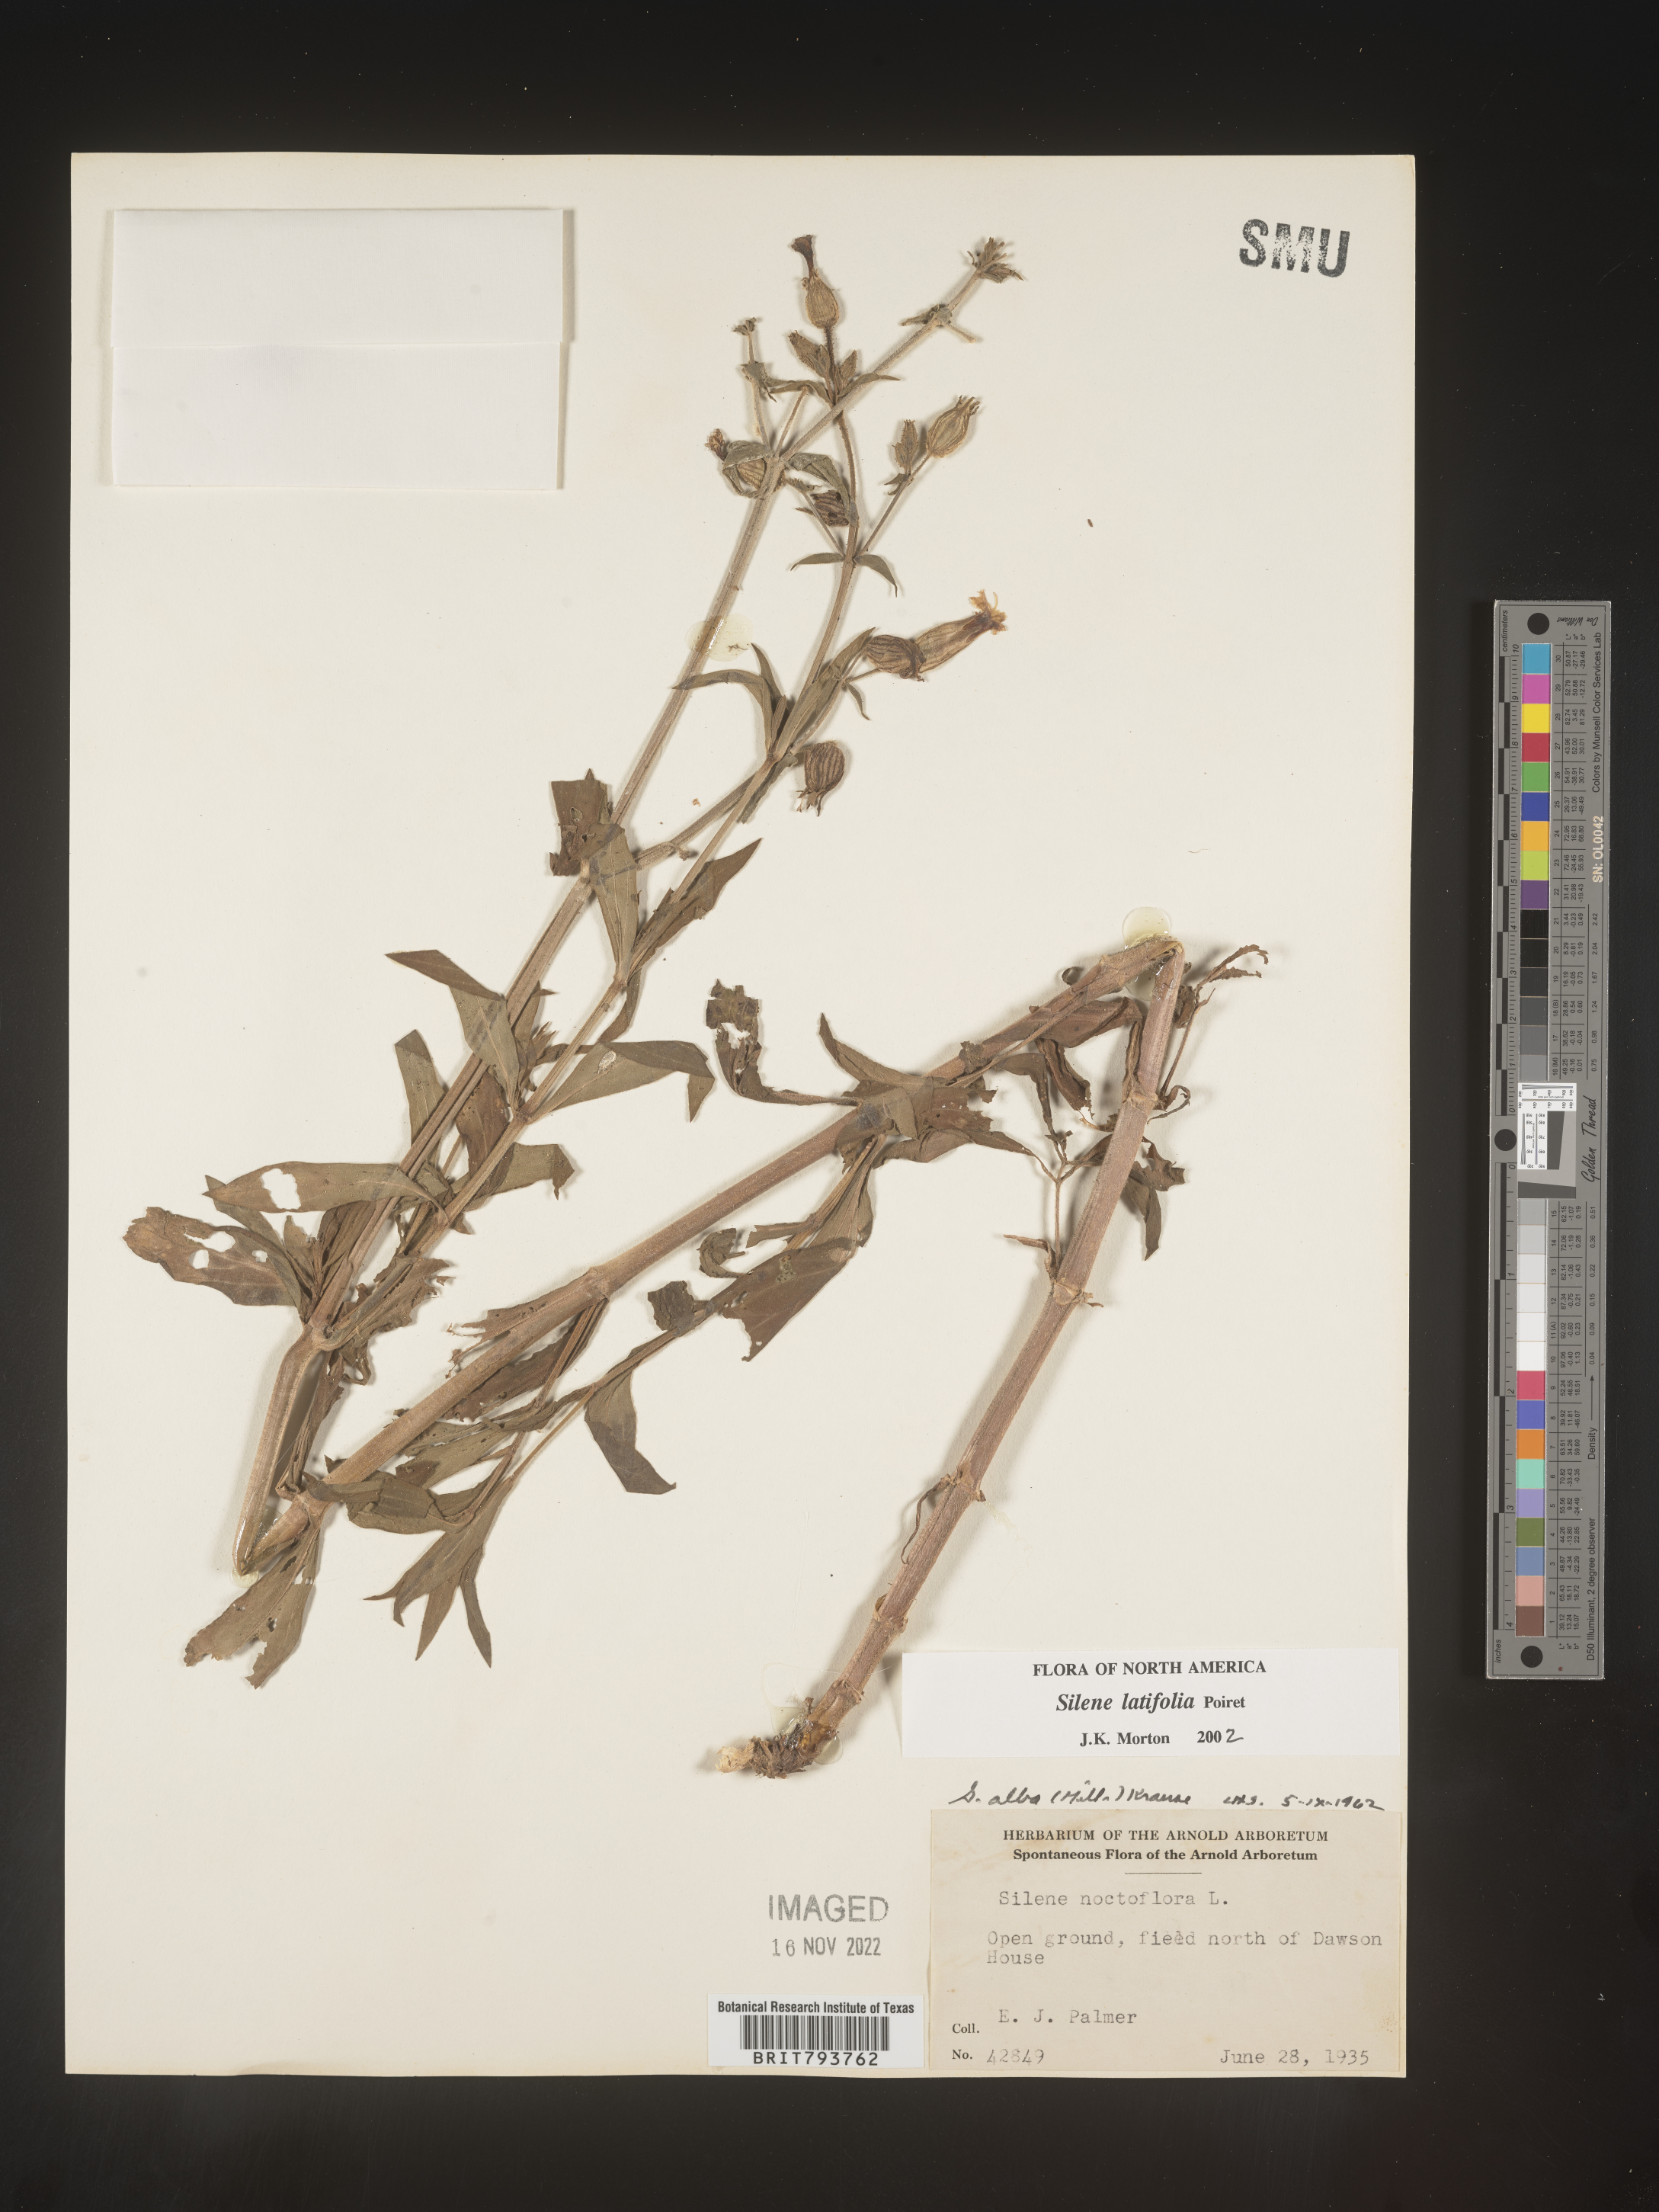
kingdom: Plantae
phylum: Tracheophyta
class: Magnoliopsida
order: Caryophyllales
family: Caryophyllaceae
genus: Silene
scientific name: Silene latifolia
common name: White campion
